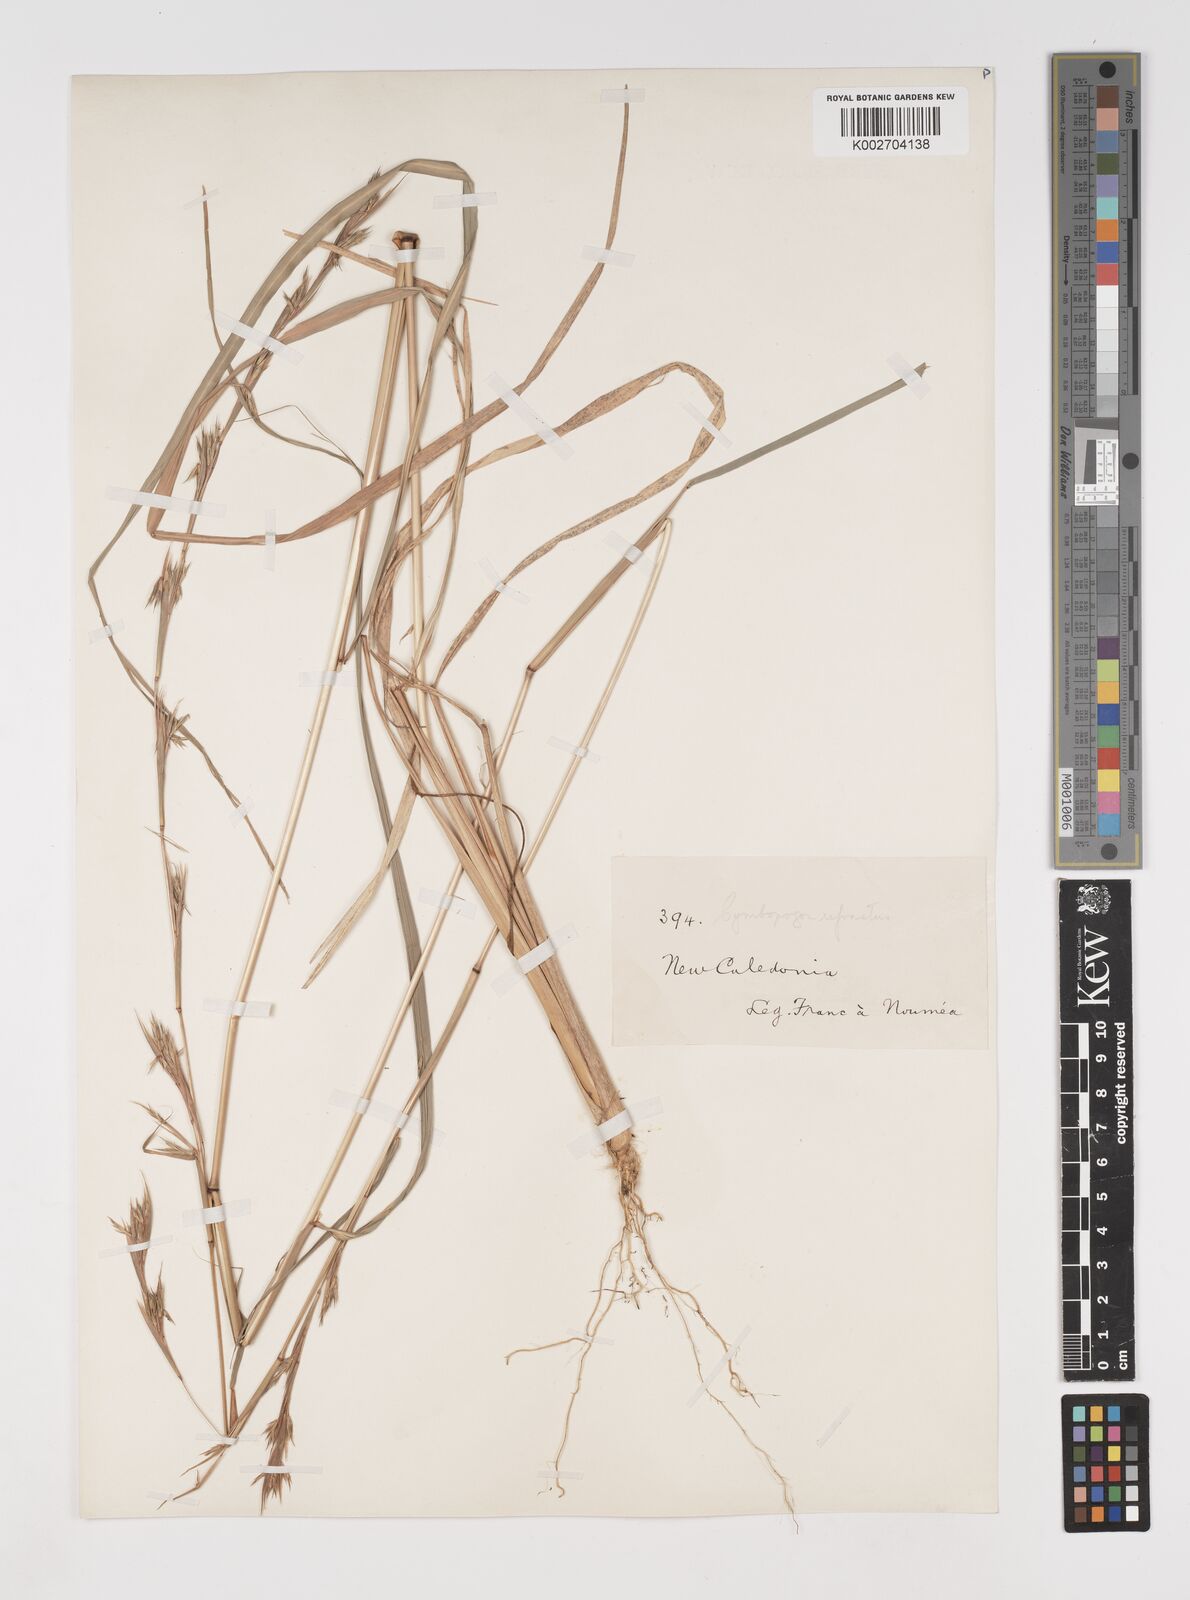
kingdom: Plantae
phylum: Tracheophyta
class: Liliopsida
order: Poales
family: Poaceae
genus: Cymbopogon
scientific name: Cymbopogon refractus
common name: Barbwire grass
